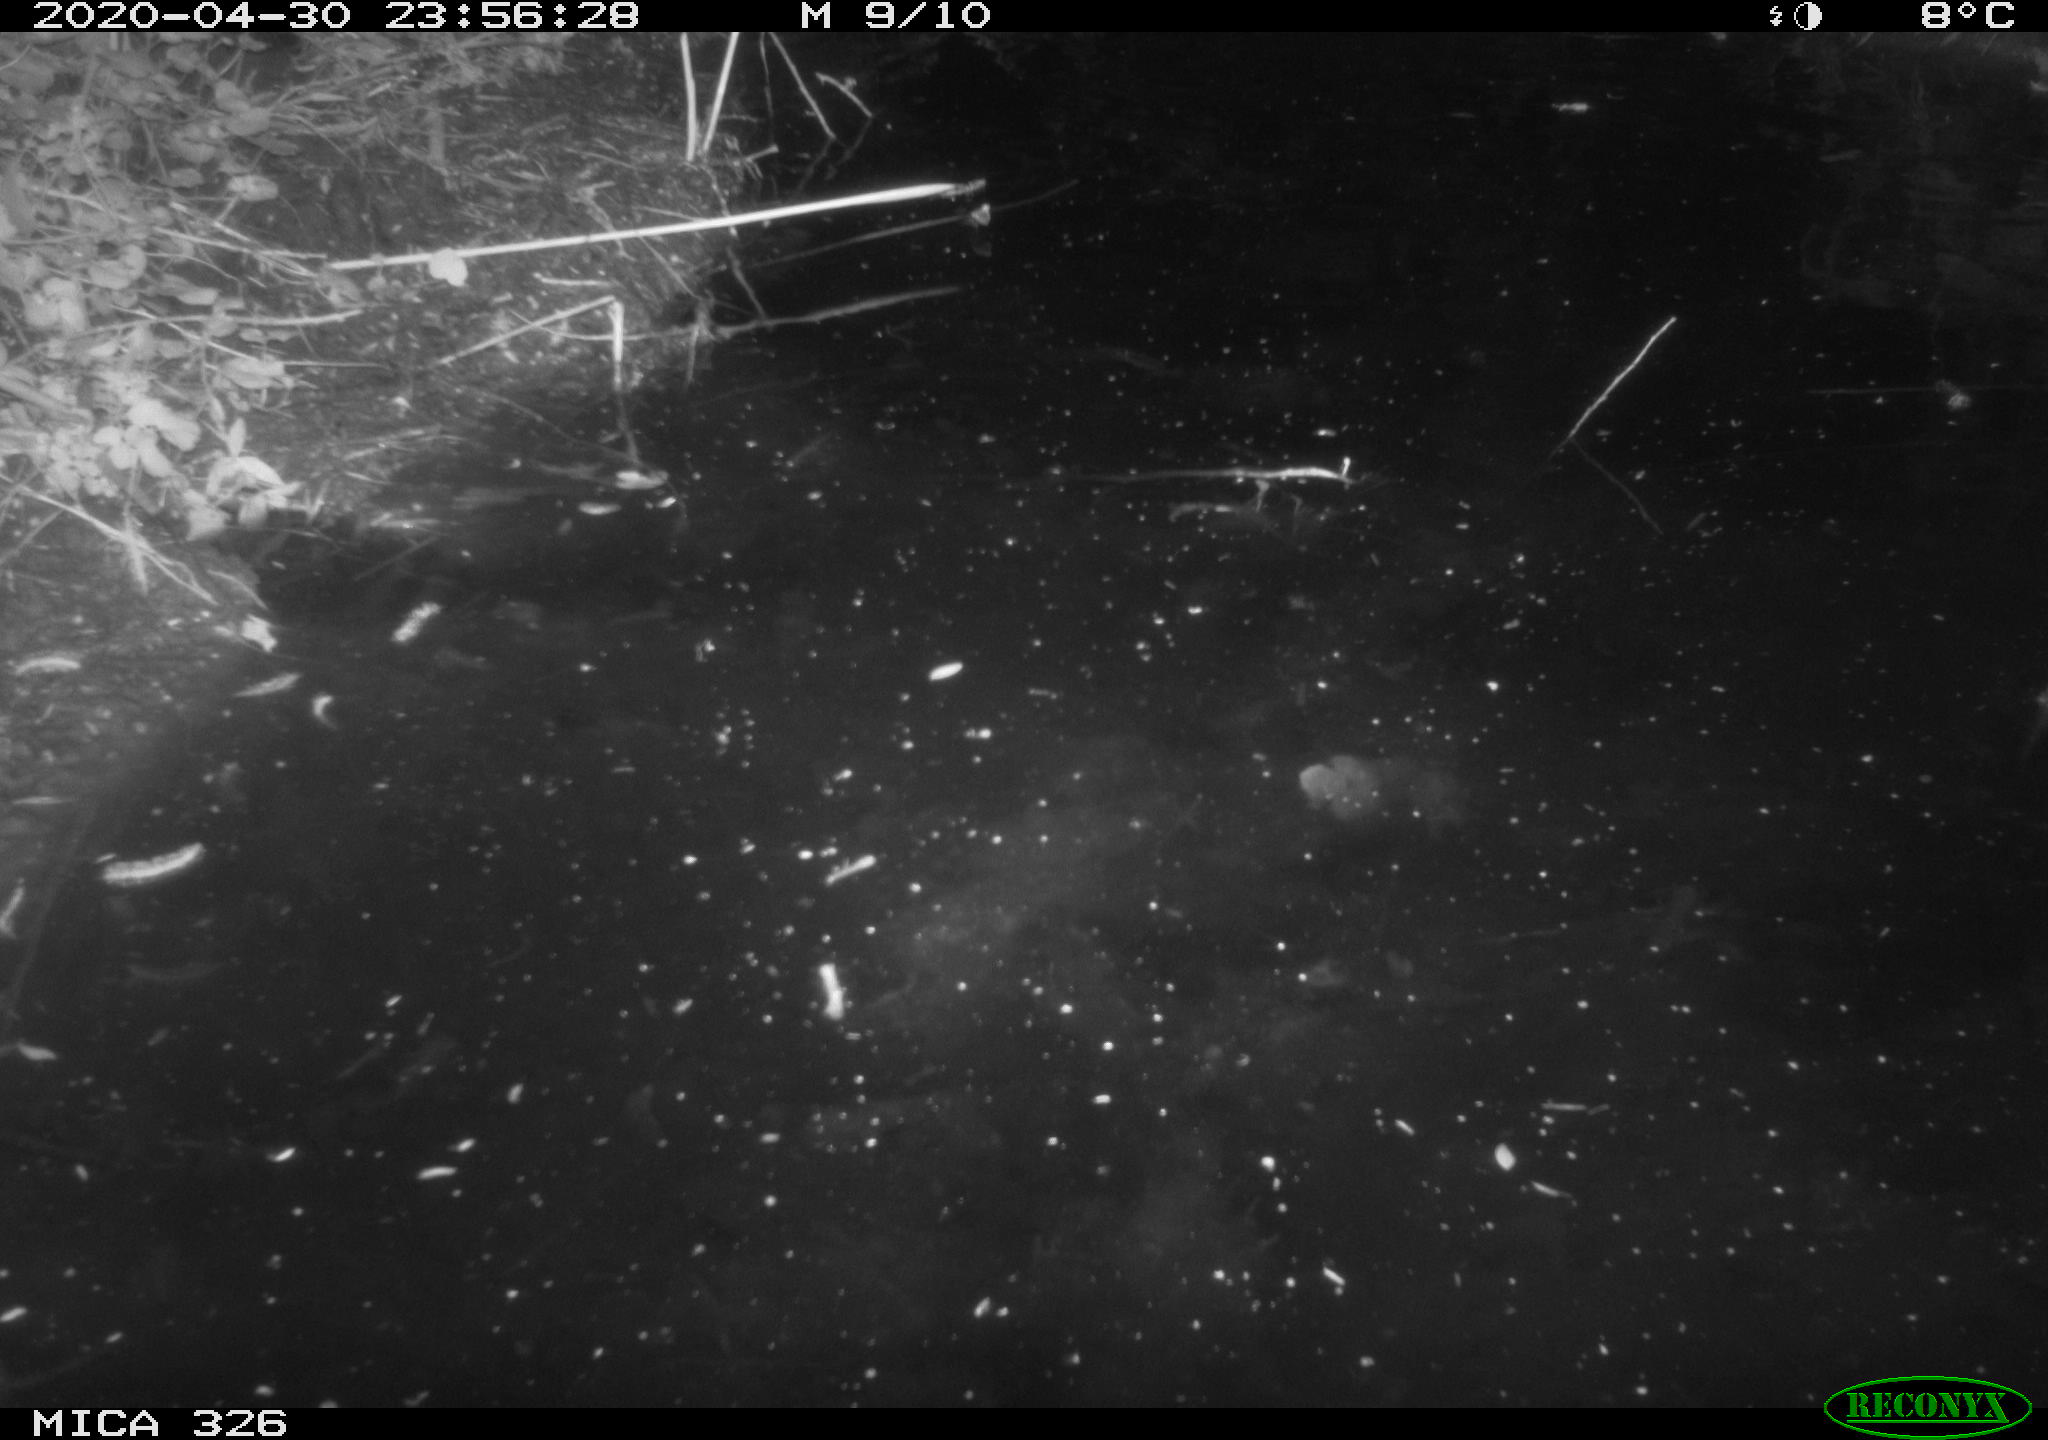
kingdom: Animalia
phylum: Chordata
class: Mammalia
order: Rodentia
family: Myocastoridae
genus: Myocastor
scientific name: Myocastor coypus
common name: Coypu
